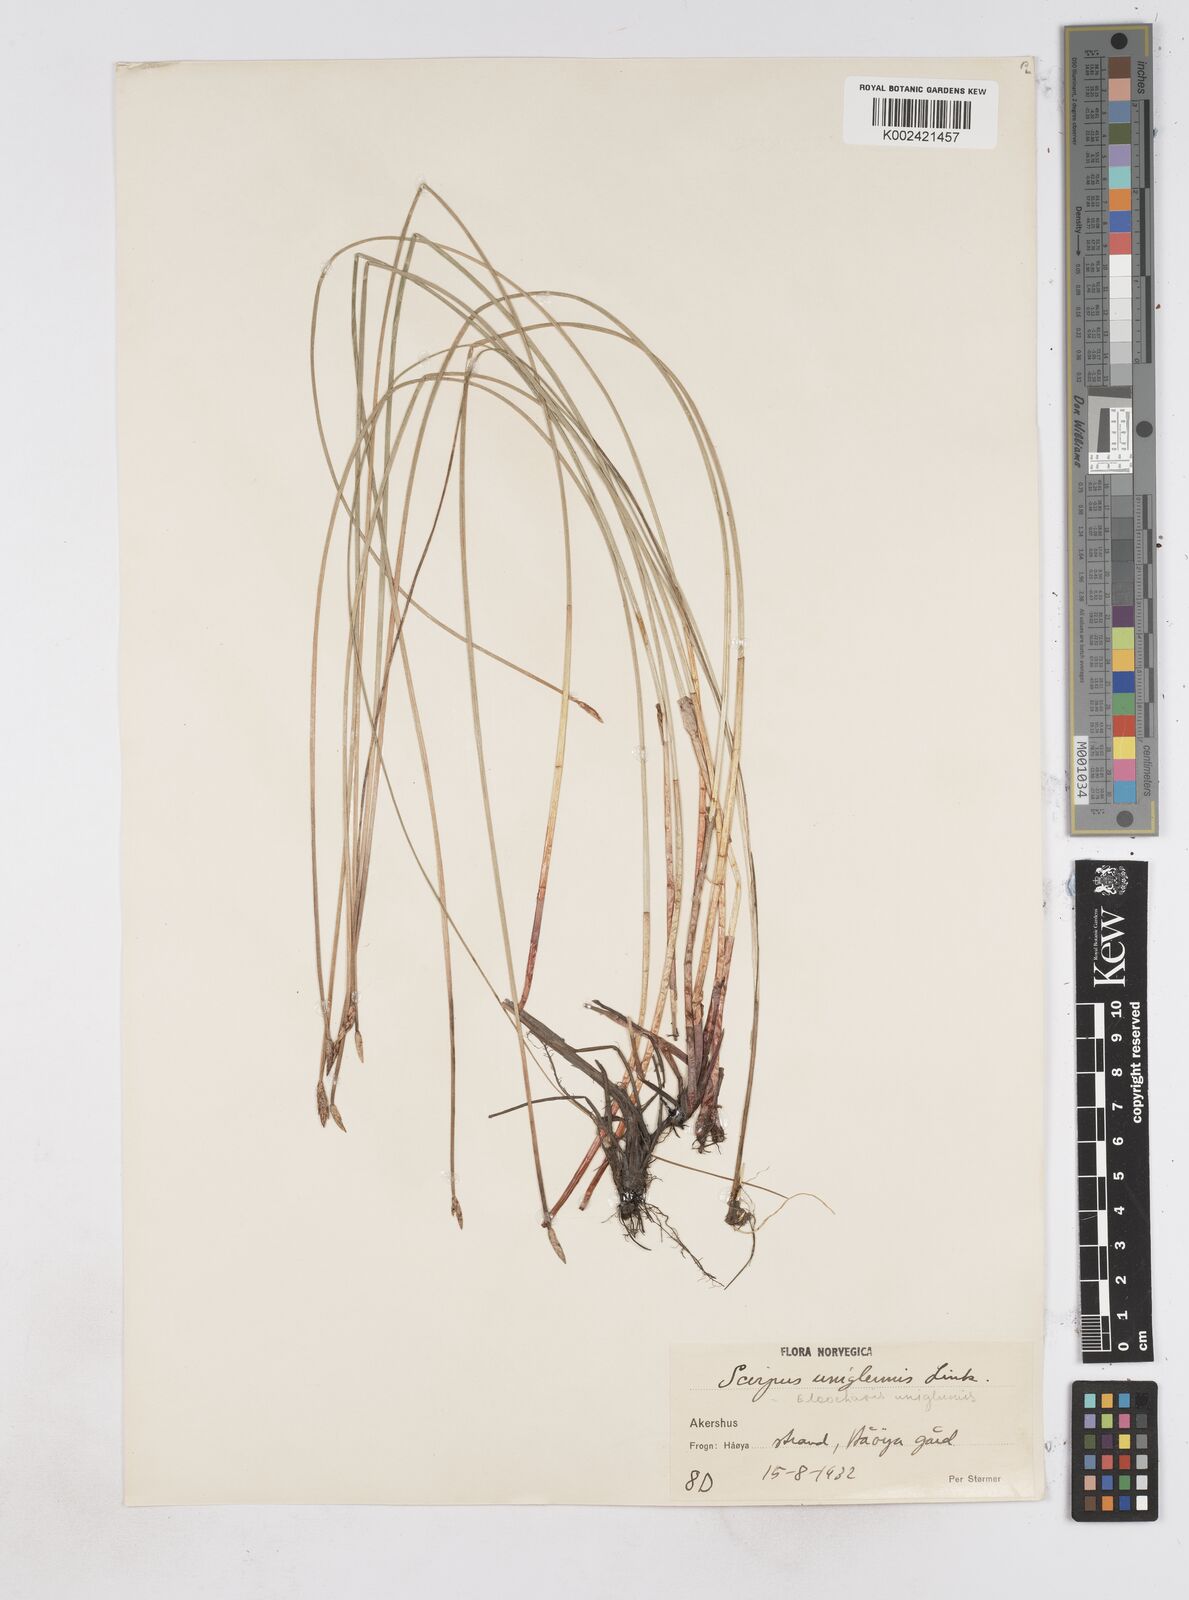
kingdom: Plantae
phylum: Tracheophyta
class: Liliopsida
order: Poales
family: Cyperaceae
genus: Eleocharis
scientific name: Eleocharis uniglumis
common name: Slender spike-rush
